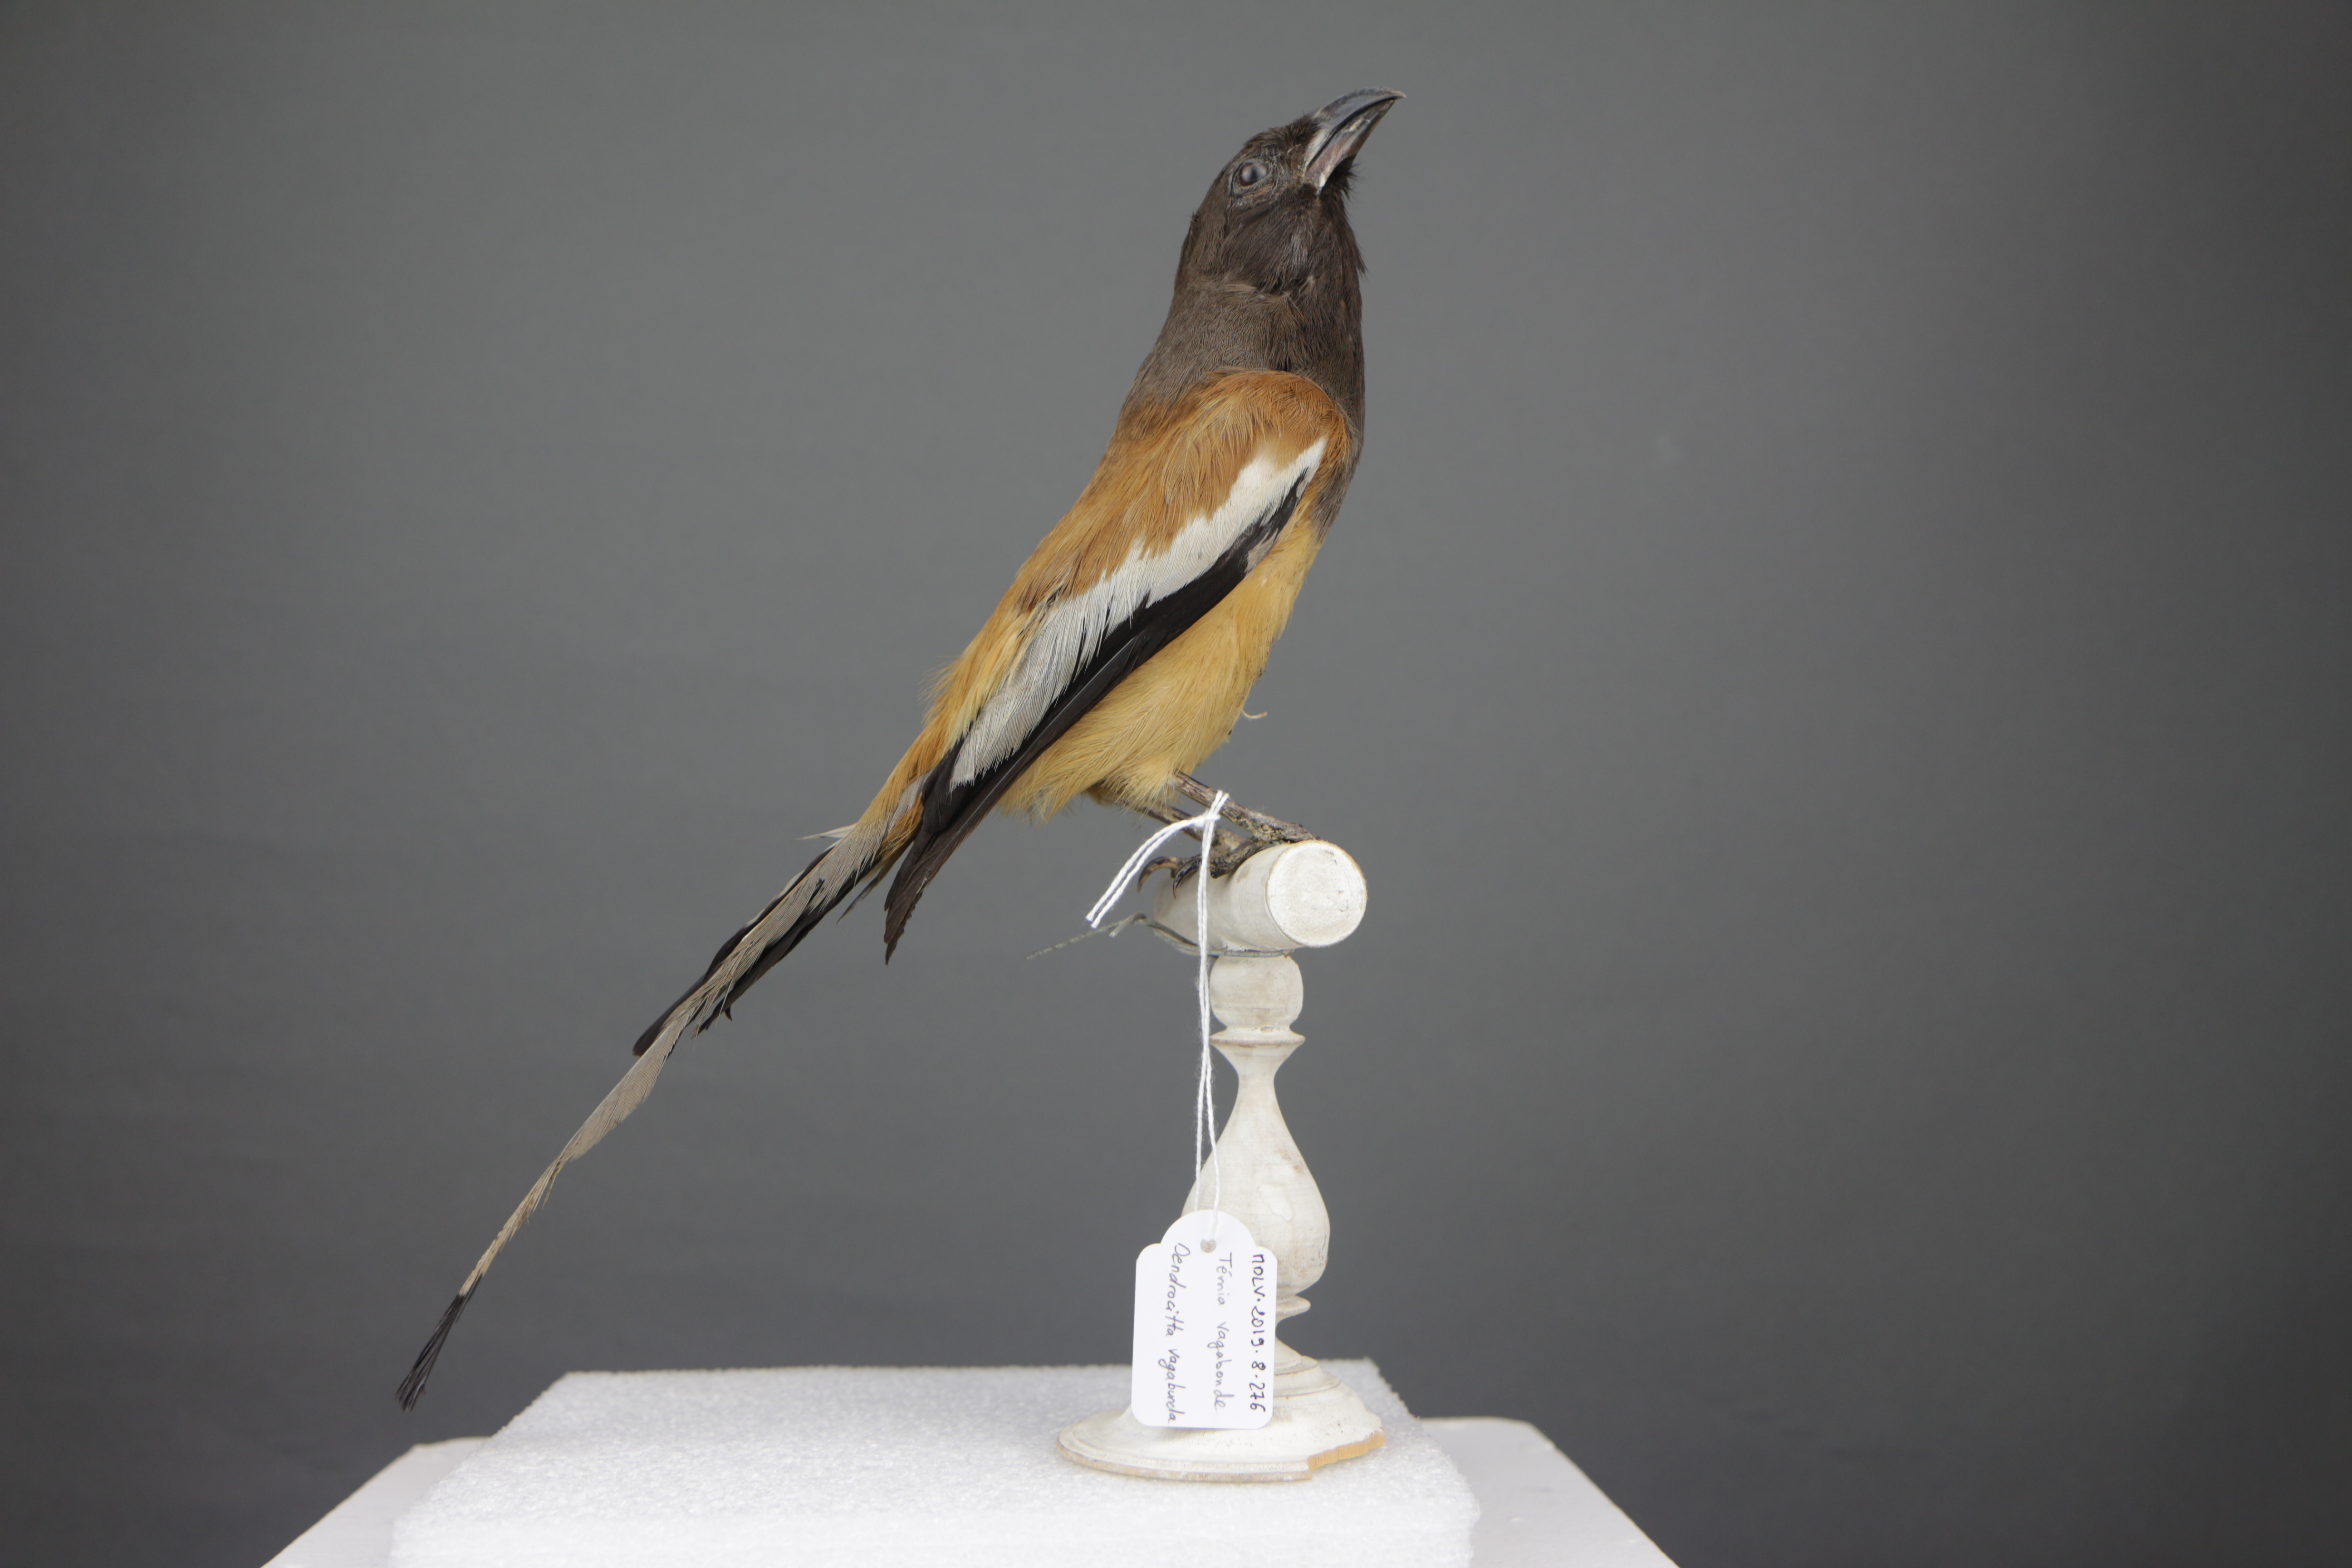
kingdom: Animalia
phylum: Chordata
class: Aves
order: Passeriformes
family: Corvidae
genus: Dendrocitta
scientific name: Dendrocitta vagabunda
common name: Rufous treepie
